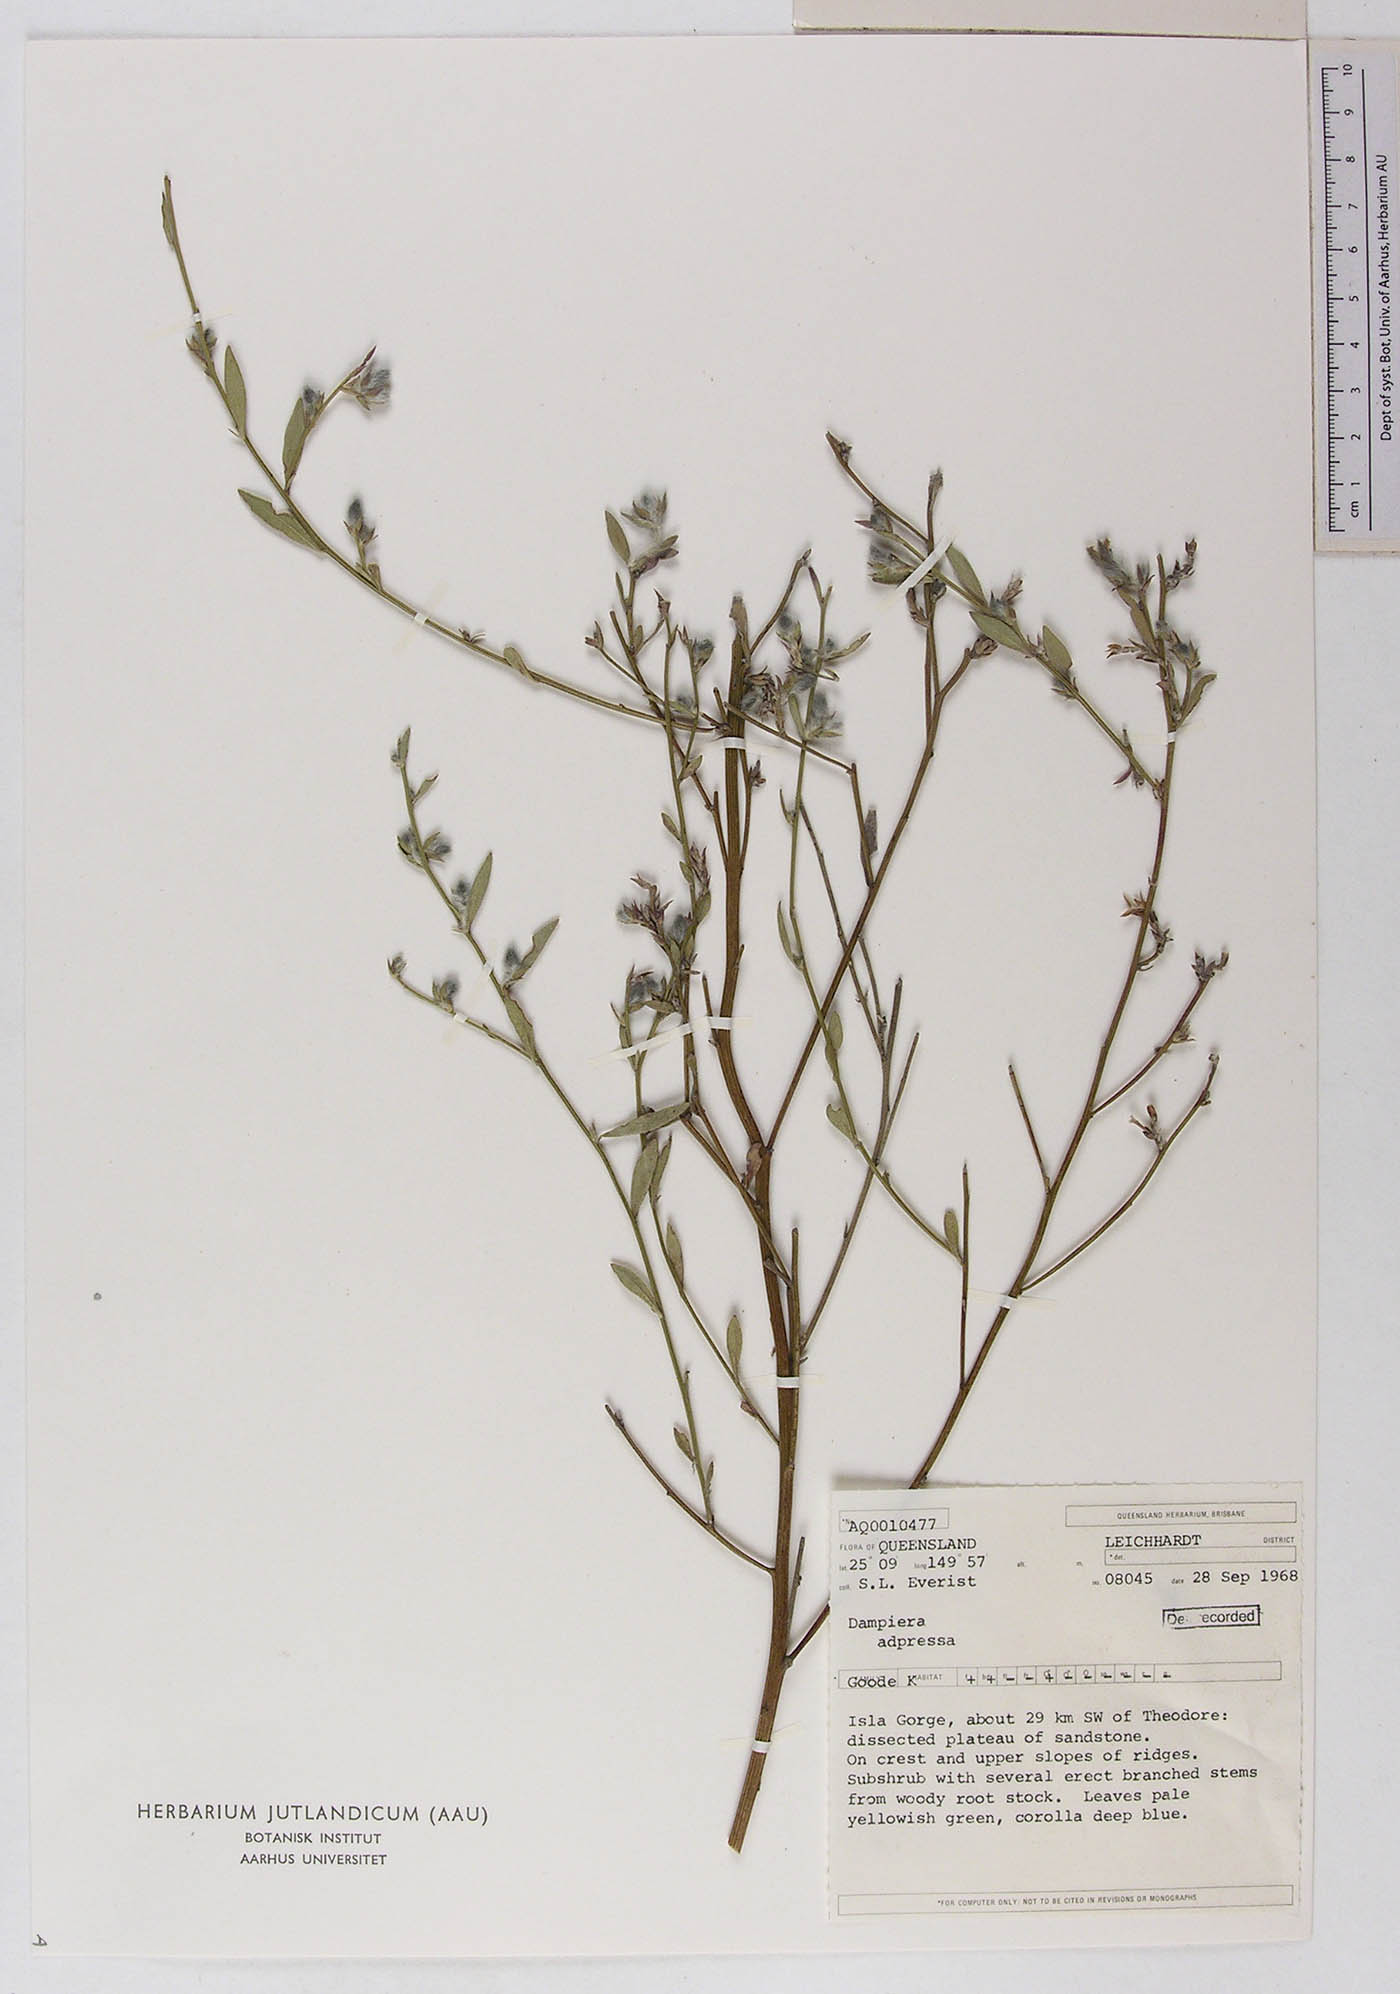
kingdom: Plantae
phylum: Tracheophyta
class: Magnoliopsida
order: Asterales
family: Goodeniaceae
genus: Dampiera
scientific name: Dampiera adpressa
